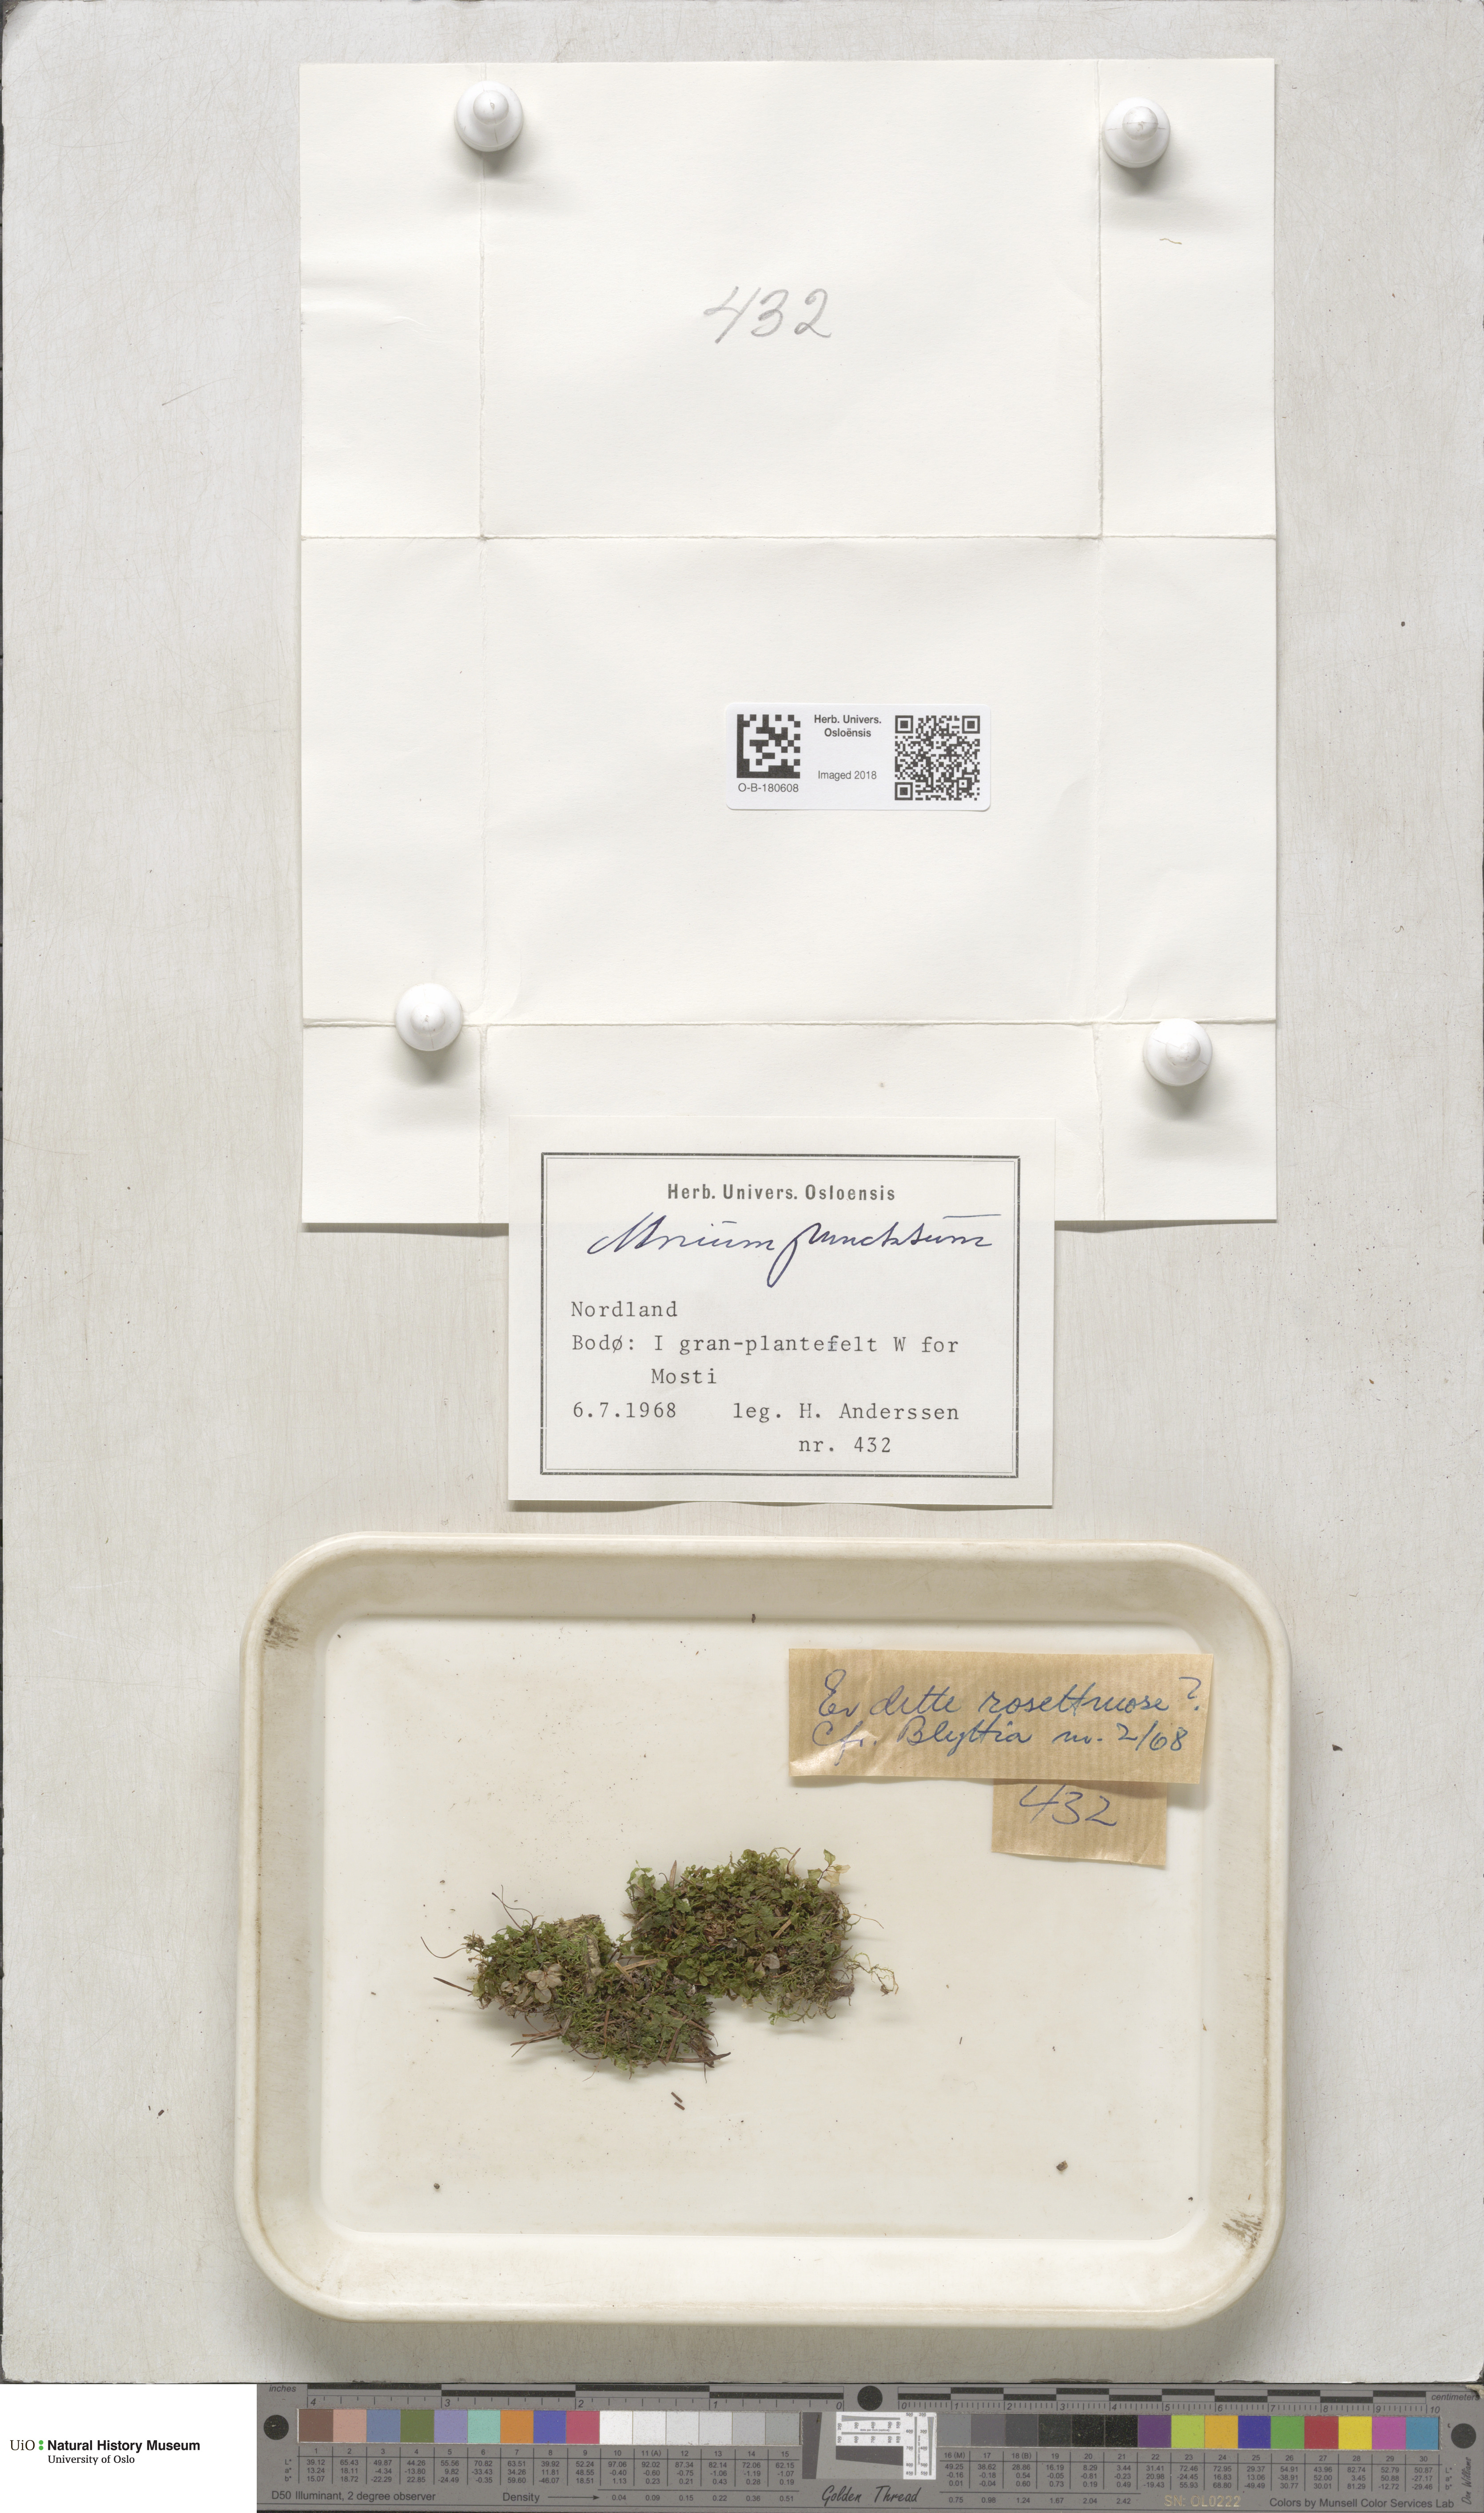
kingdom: Plantae
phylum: Bryophyta
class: Bryopsida
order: Bryales
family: Mniaceae
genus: Rhizomnium
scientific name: Rhizomnium punctatum
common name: Dotted leafy moss
